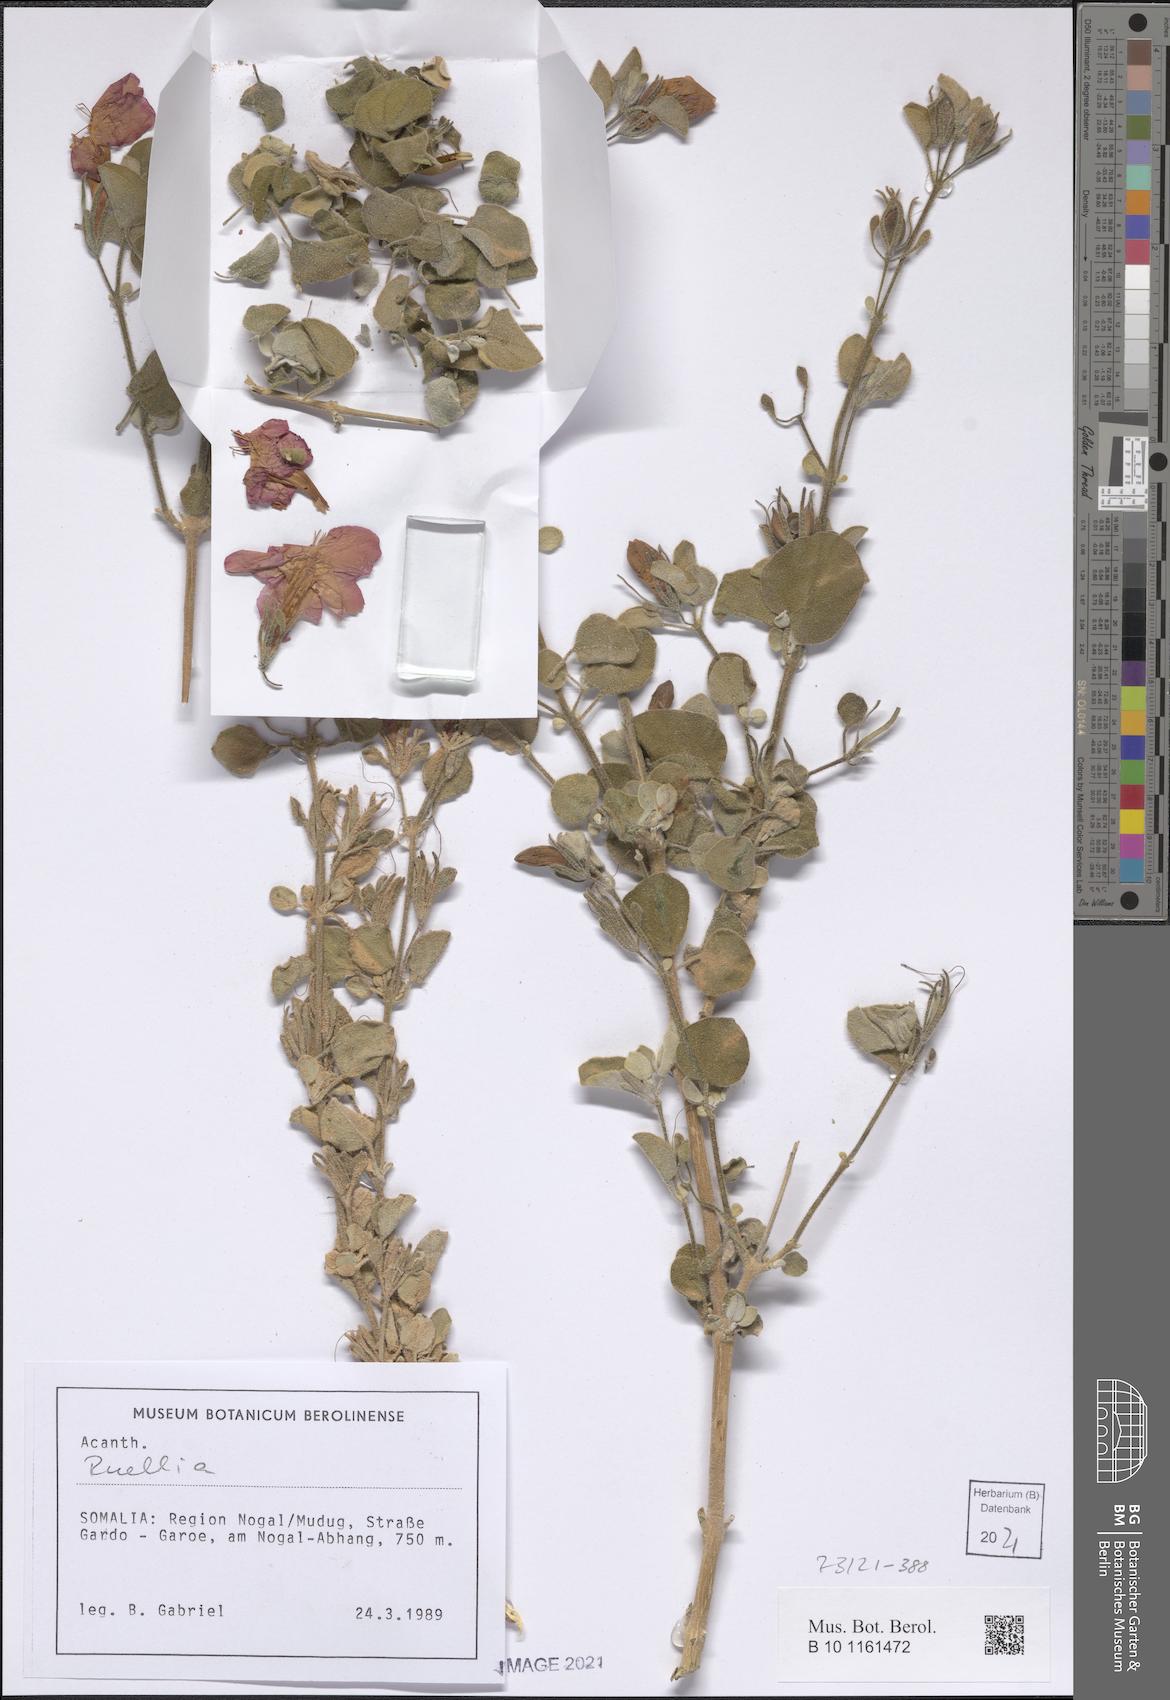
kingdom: Plantae
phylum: Tracheophyta
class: Magnoliopsida
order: Lamiales
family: Acanthaceae
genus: Ruellia
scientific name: Ruellia carnea
